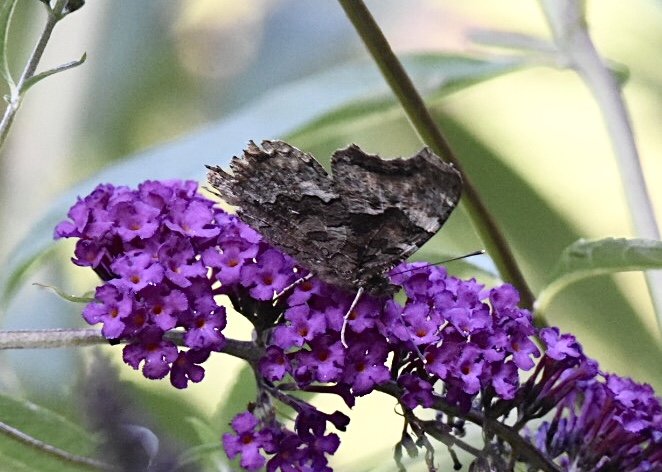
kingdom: Animalia
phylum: Arthropoda
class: Insecta
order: Lepidoptera
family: Nymphalidae
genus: Polygonia
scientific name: Polygonia vaualbum
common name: Compton Tortoiseshell
